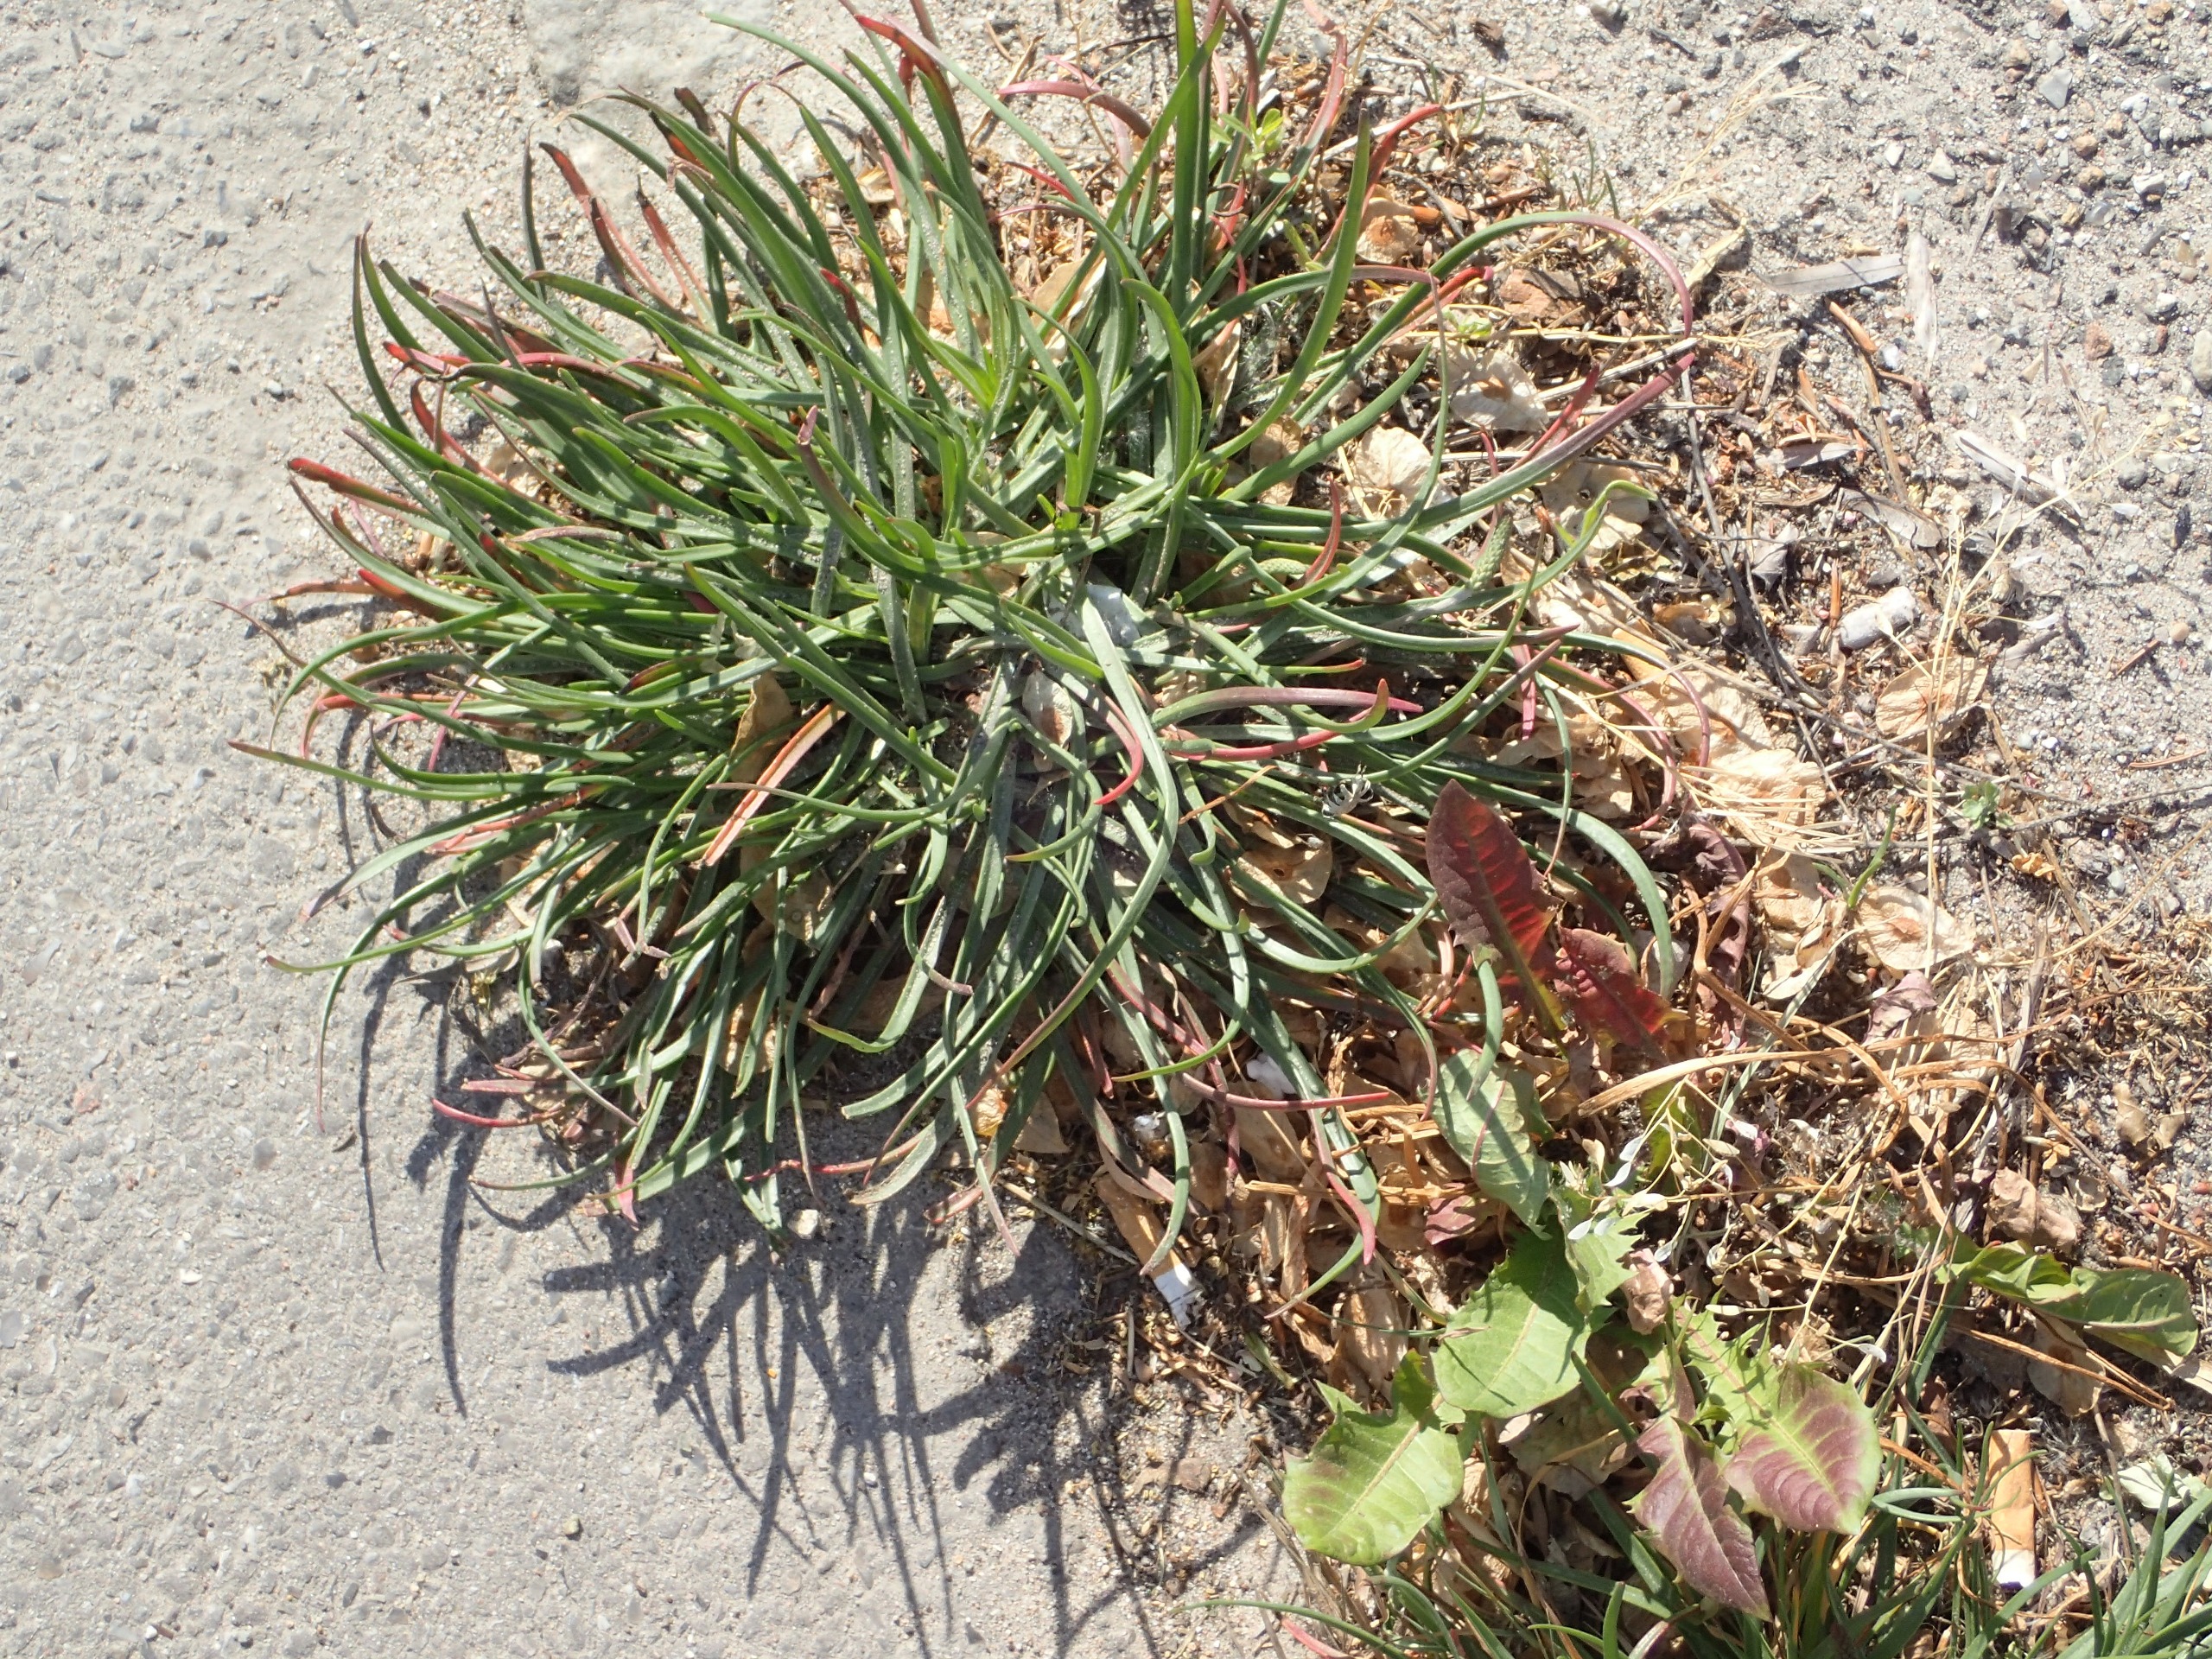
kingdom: Plantae
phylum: Tracheophyta
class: Magnoliopsida
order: Lamiales
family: Plantaginaceae
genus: Plantago
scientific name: Plantago maritima
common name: Strand-vejbred
